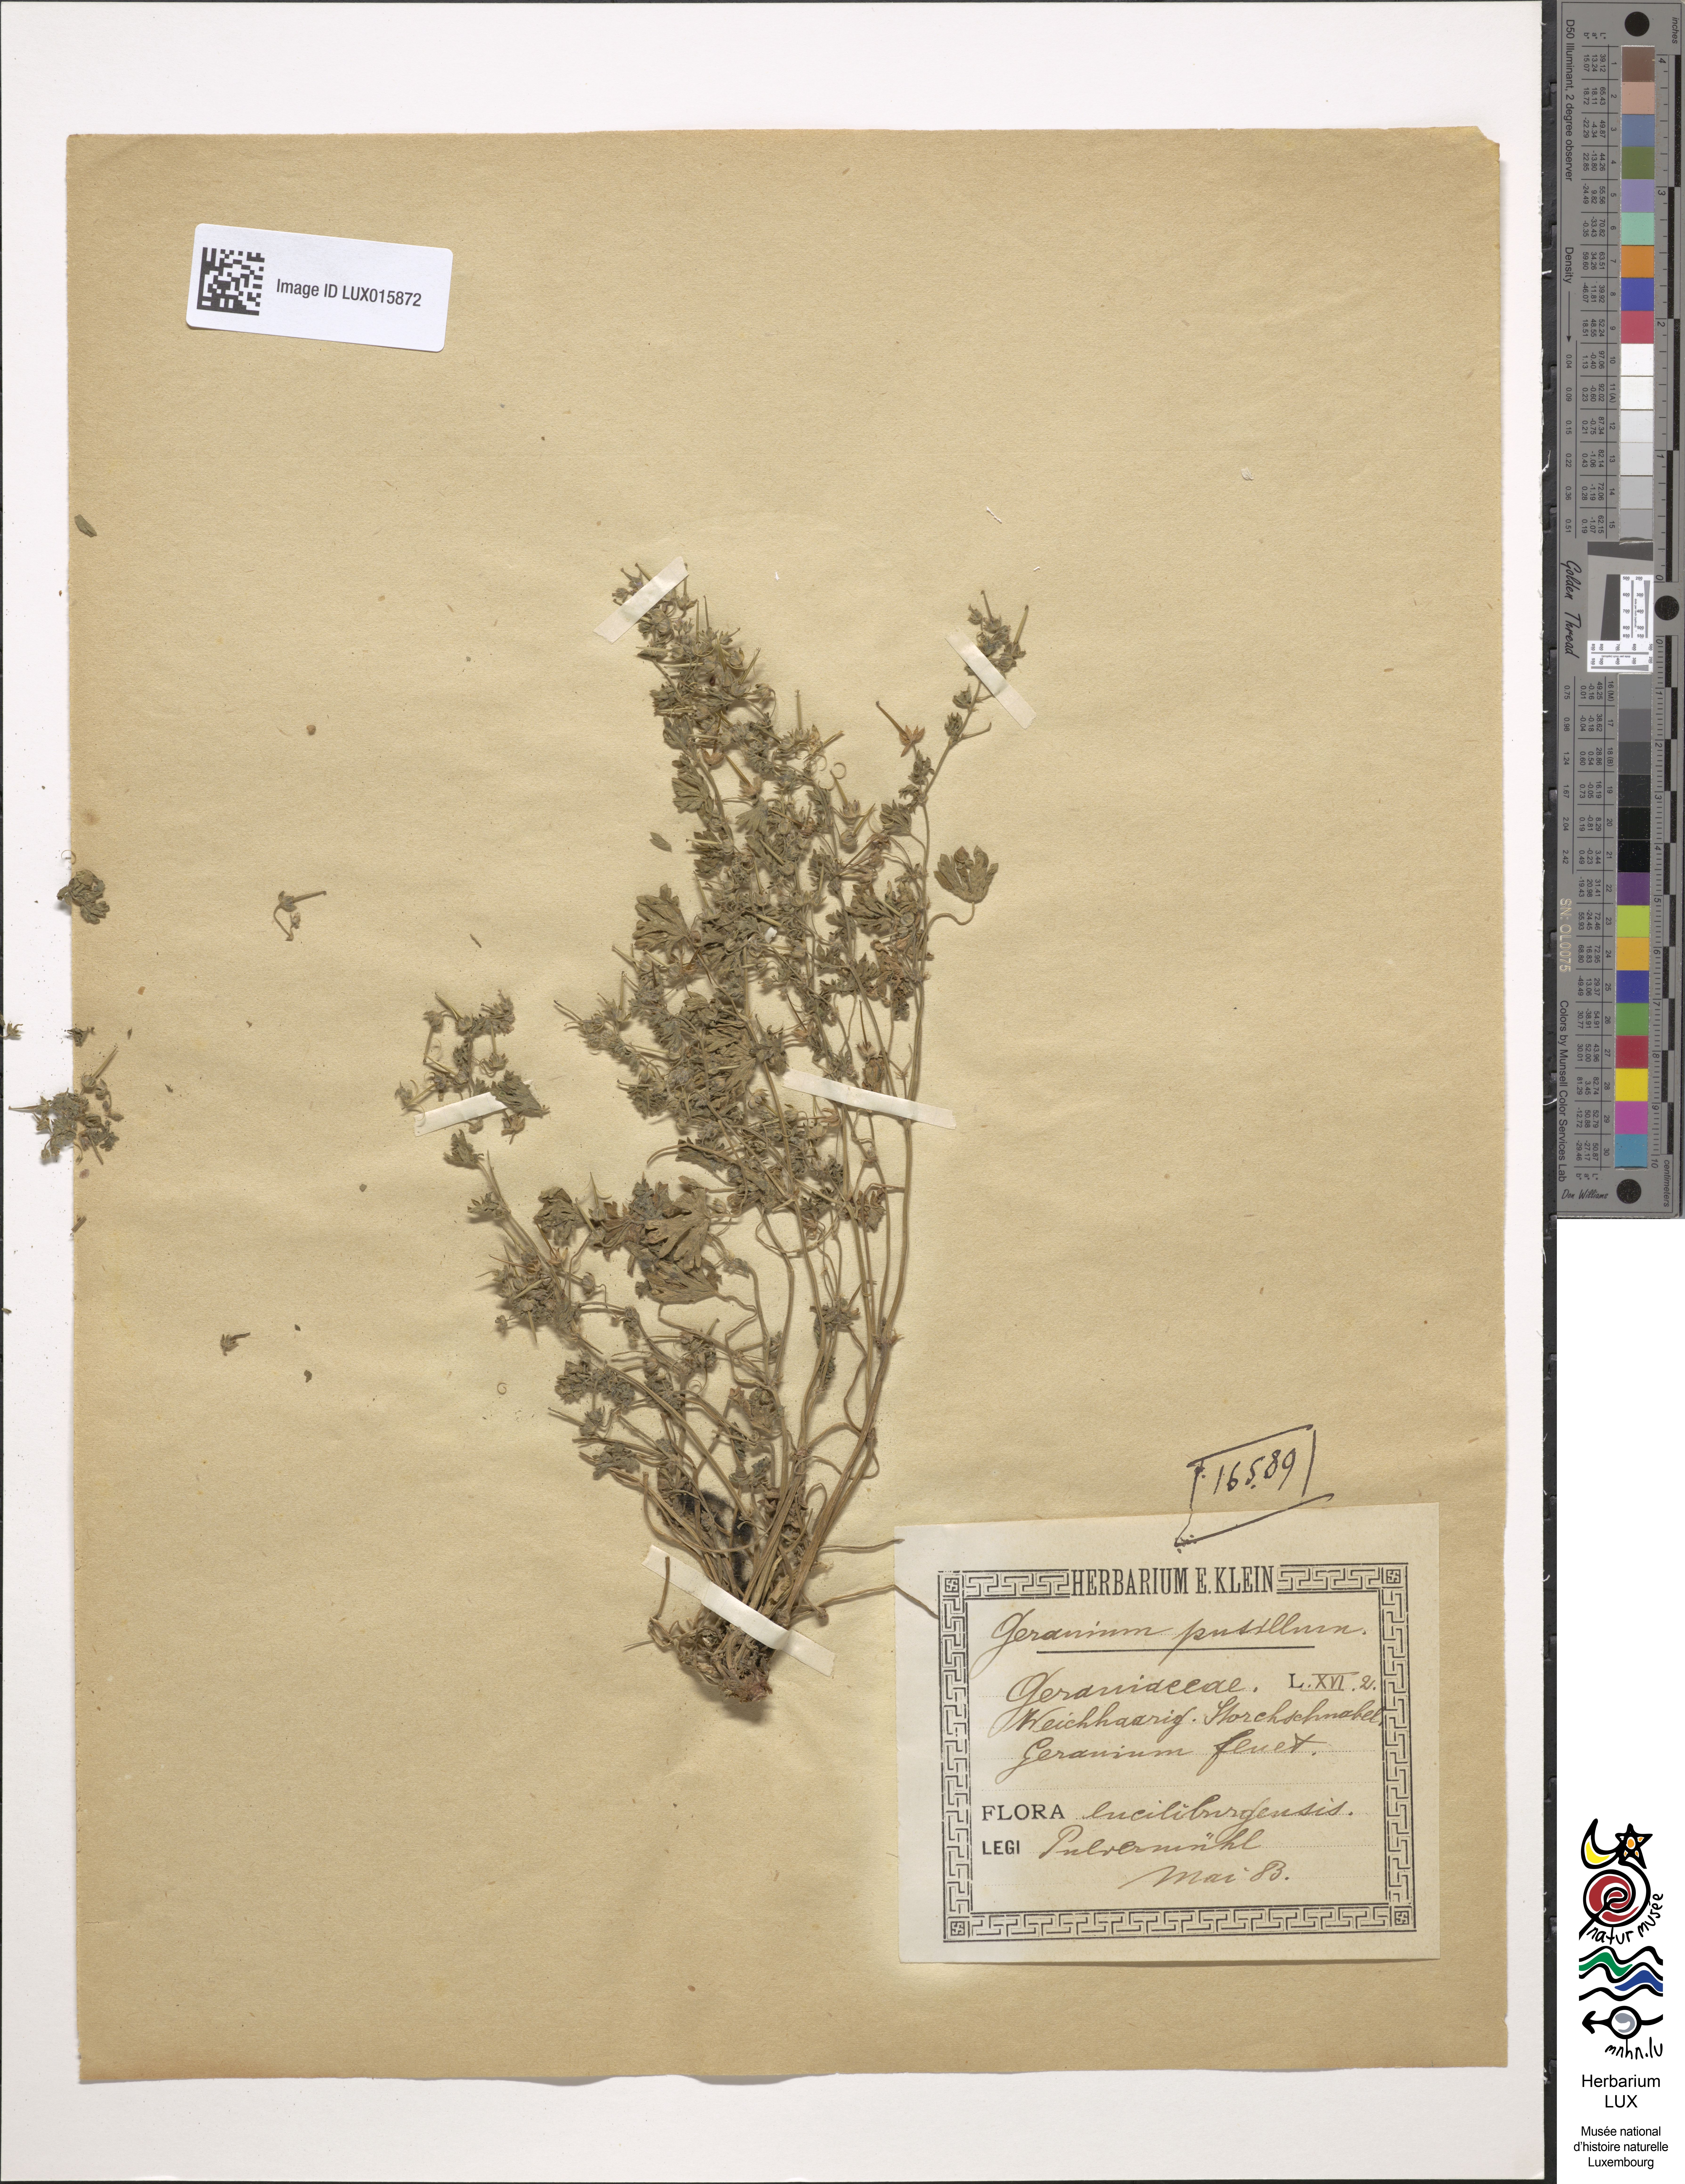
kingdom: Plantae
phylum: Tracheophyta
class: Magnoliopsida
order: Geraniales
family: Geraniaceae
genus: Geranium
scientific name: Geranium pusillum
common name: Small geranium
